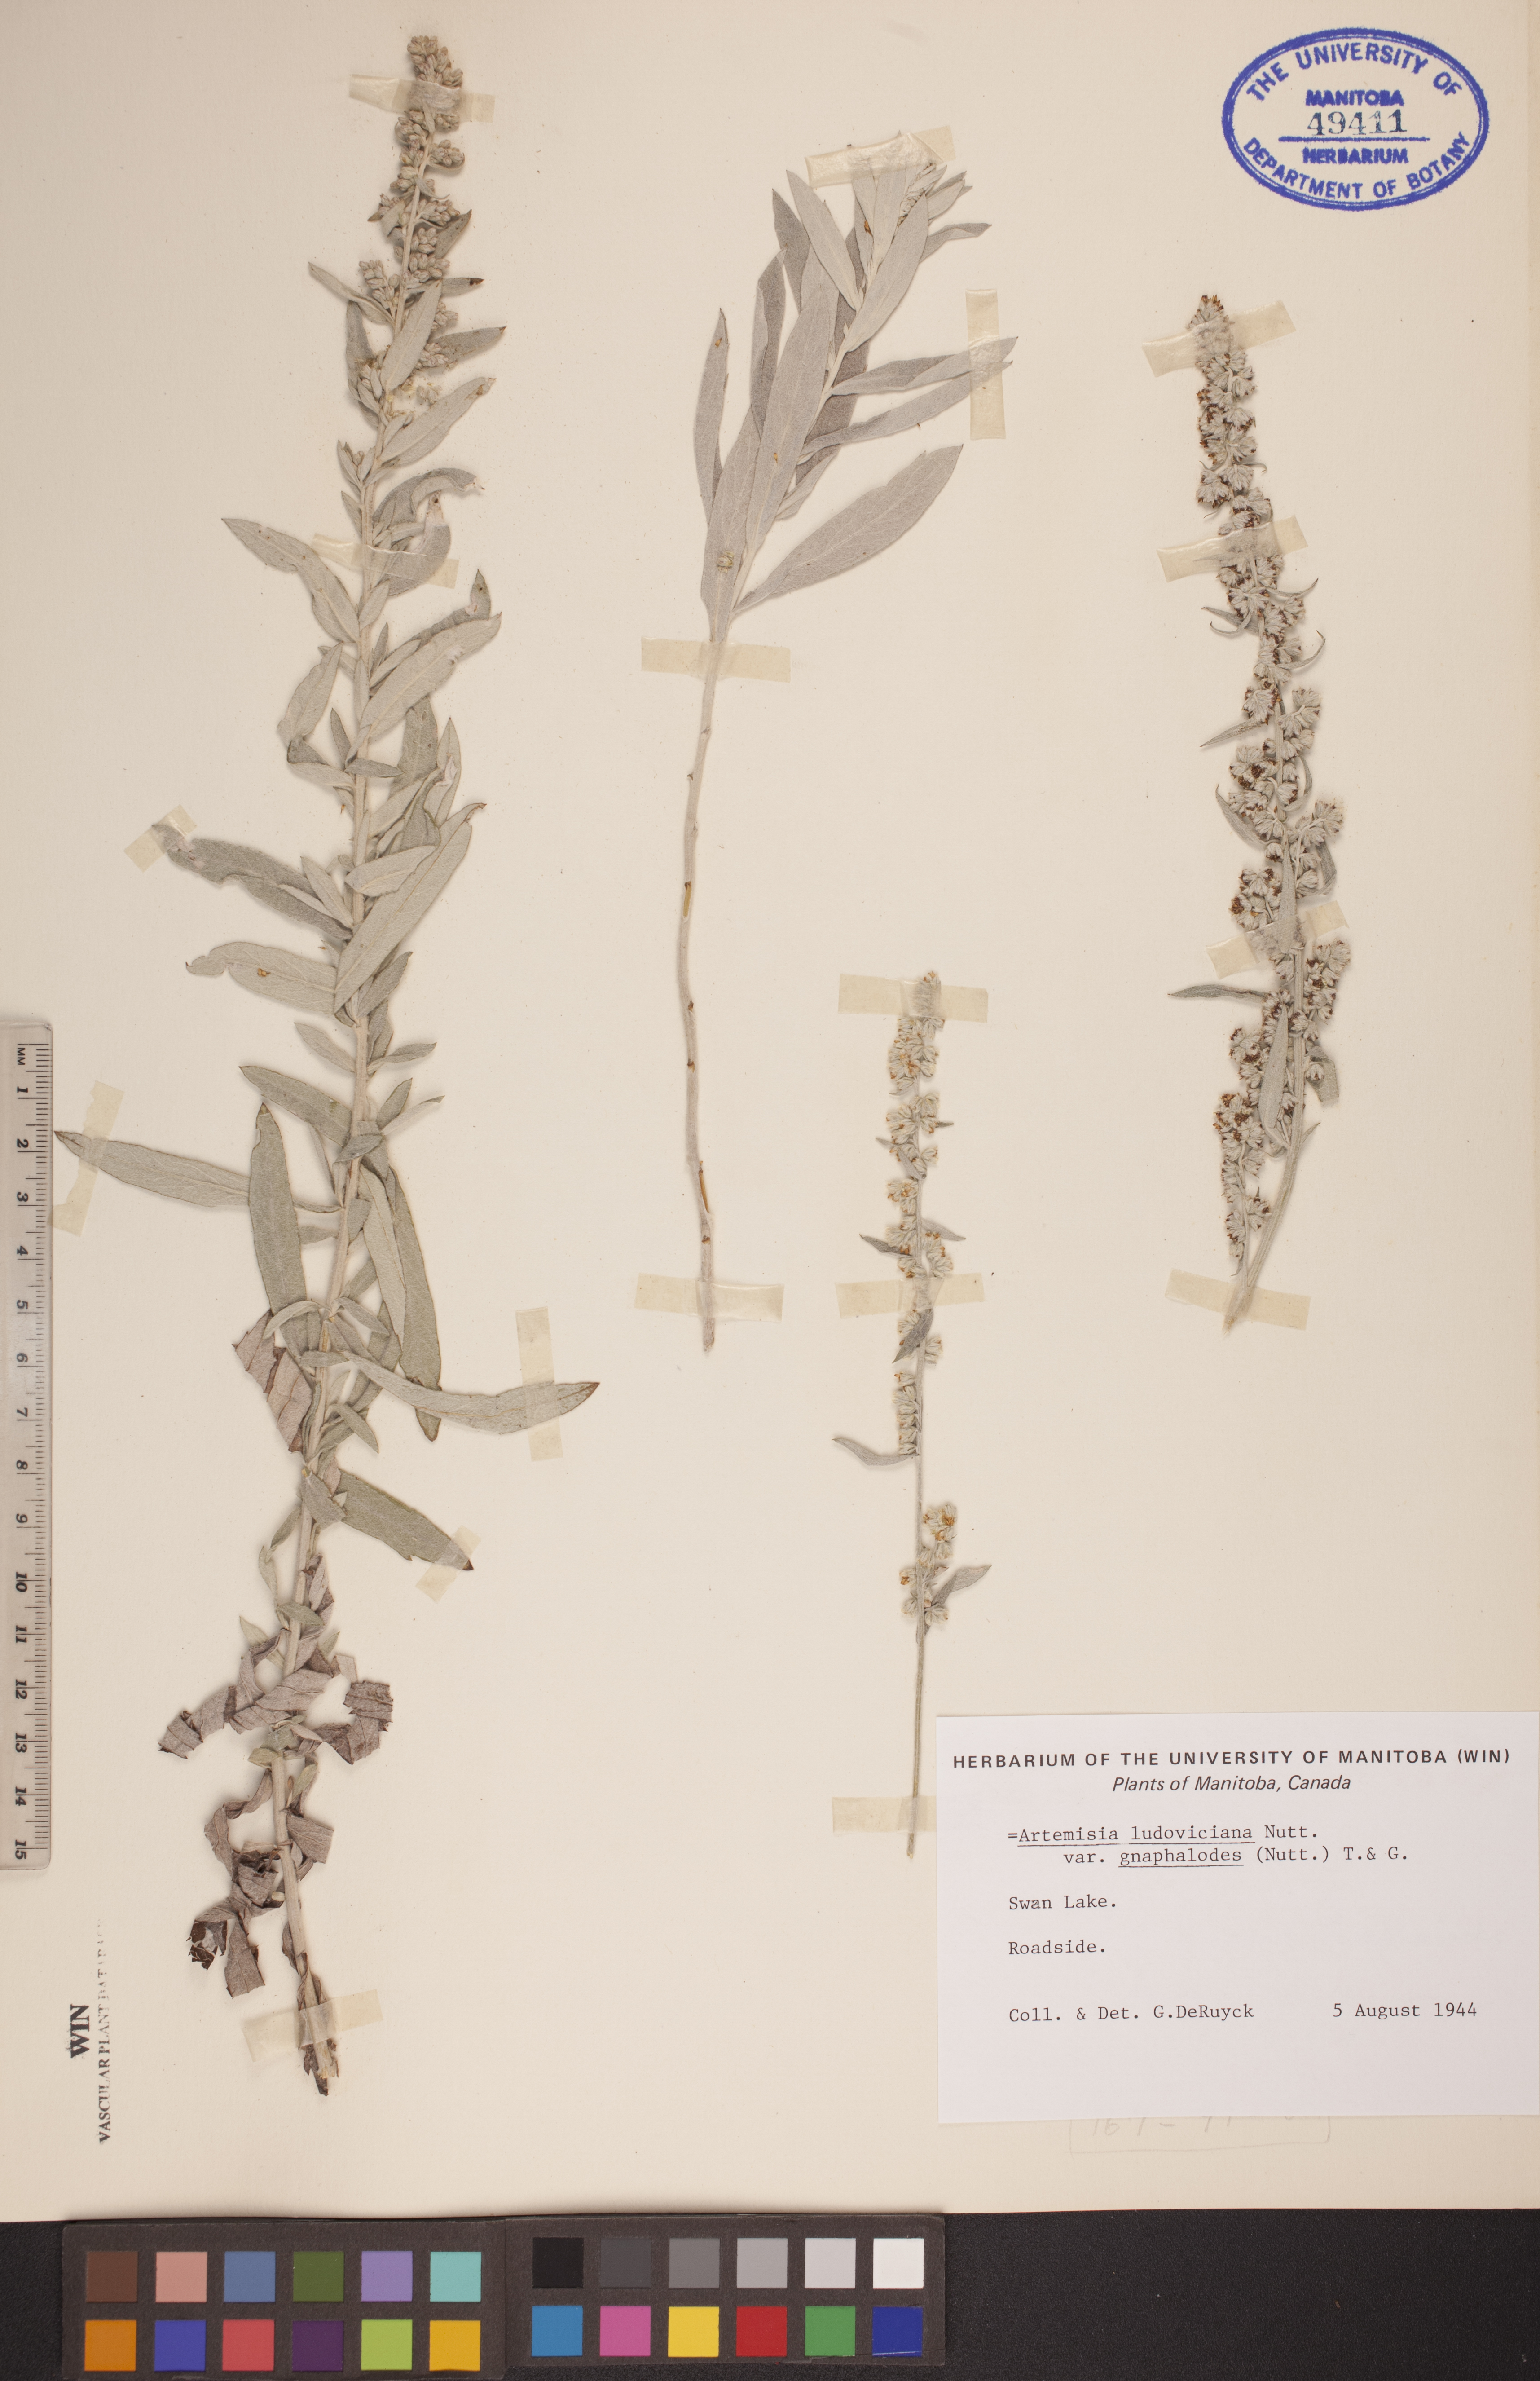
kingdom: Plantae
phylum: Tracheophyta
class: Magnoliopsida
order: Asterales
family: Asteraceae
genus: Artemisia
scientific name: Artemisia ludoviciana
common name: Western mugwort
